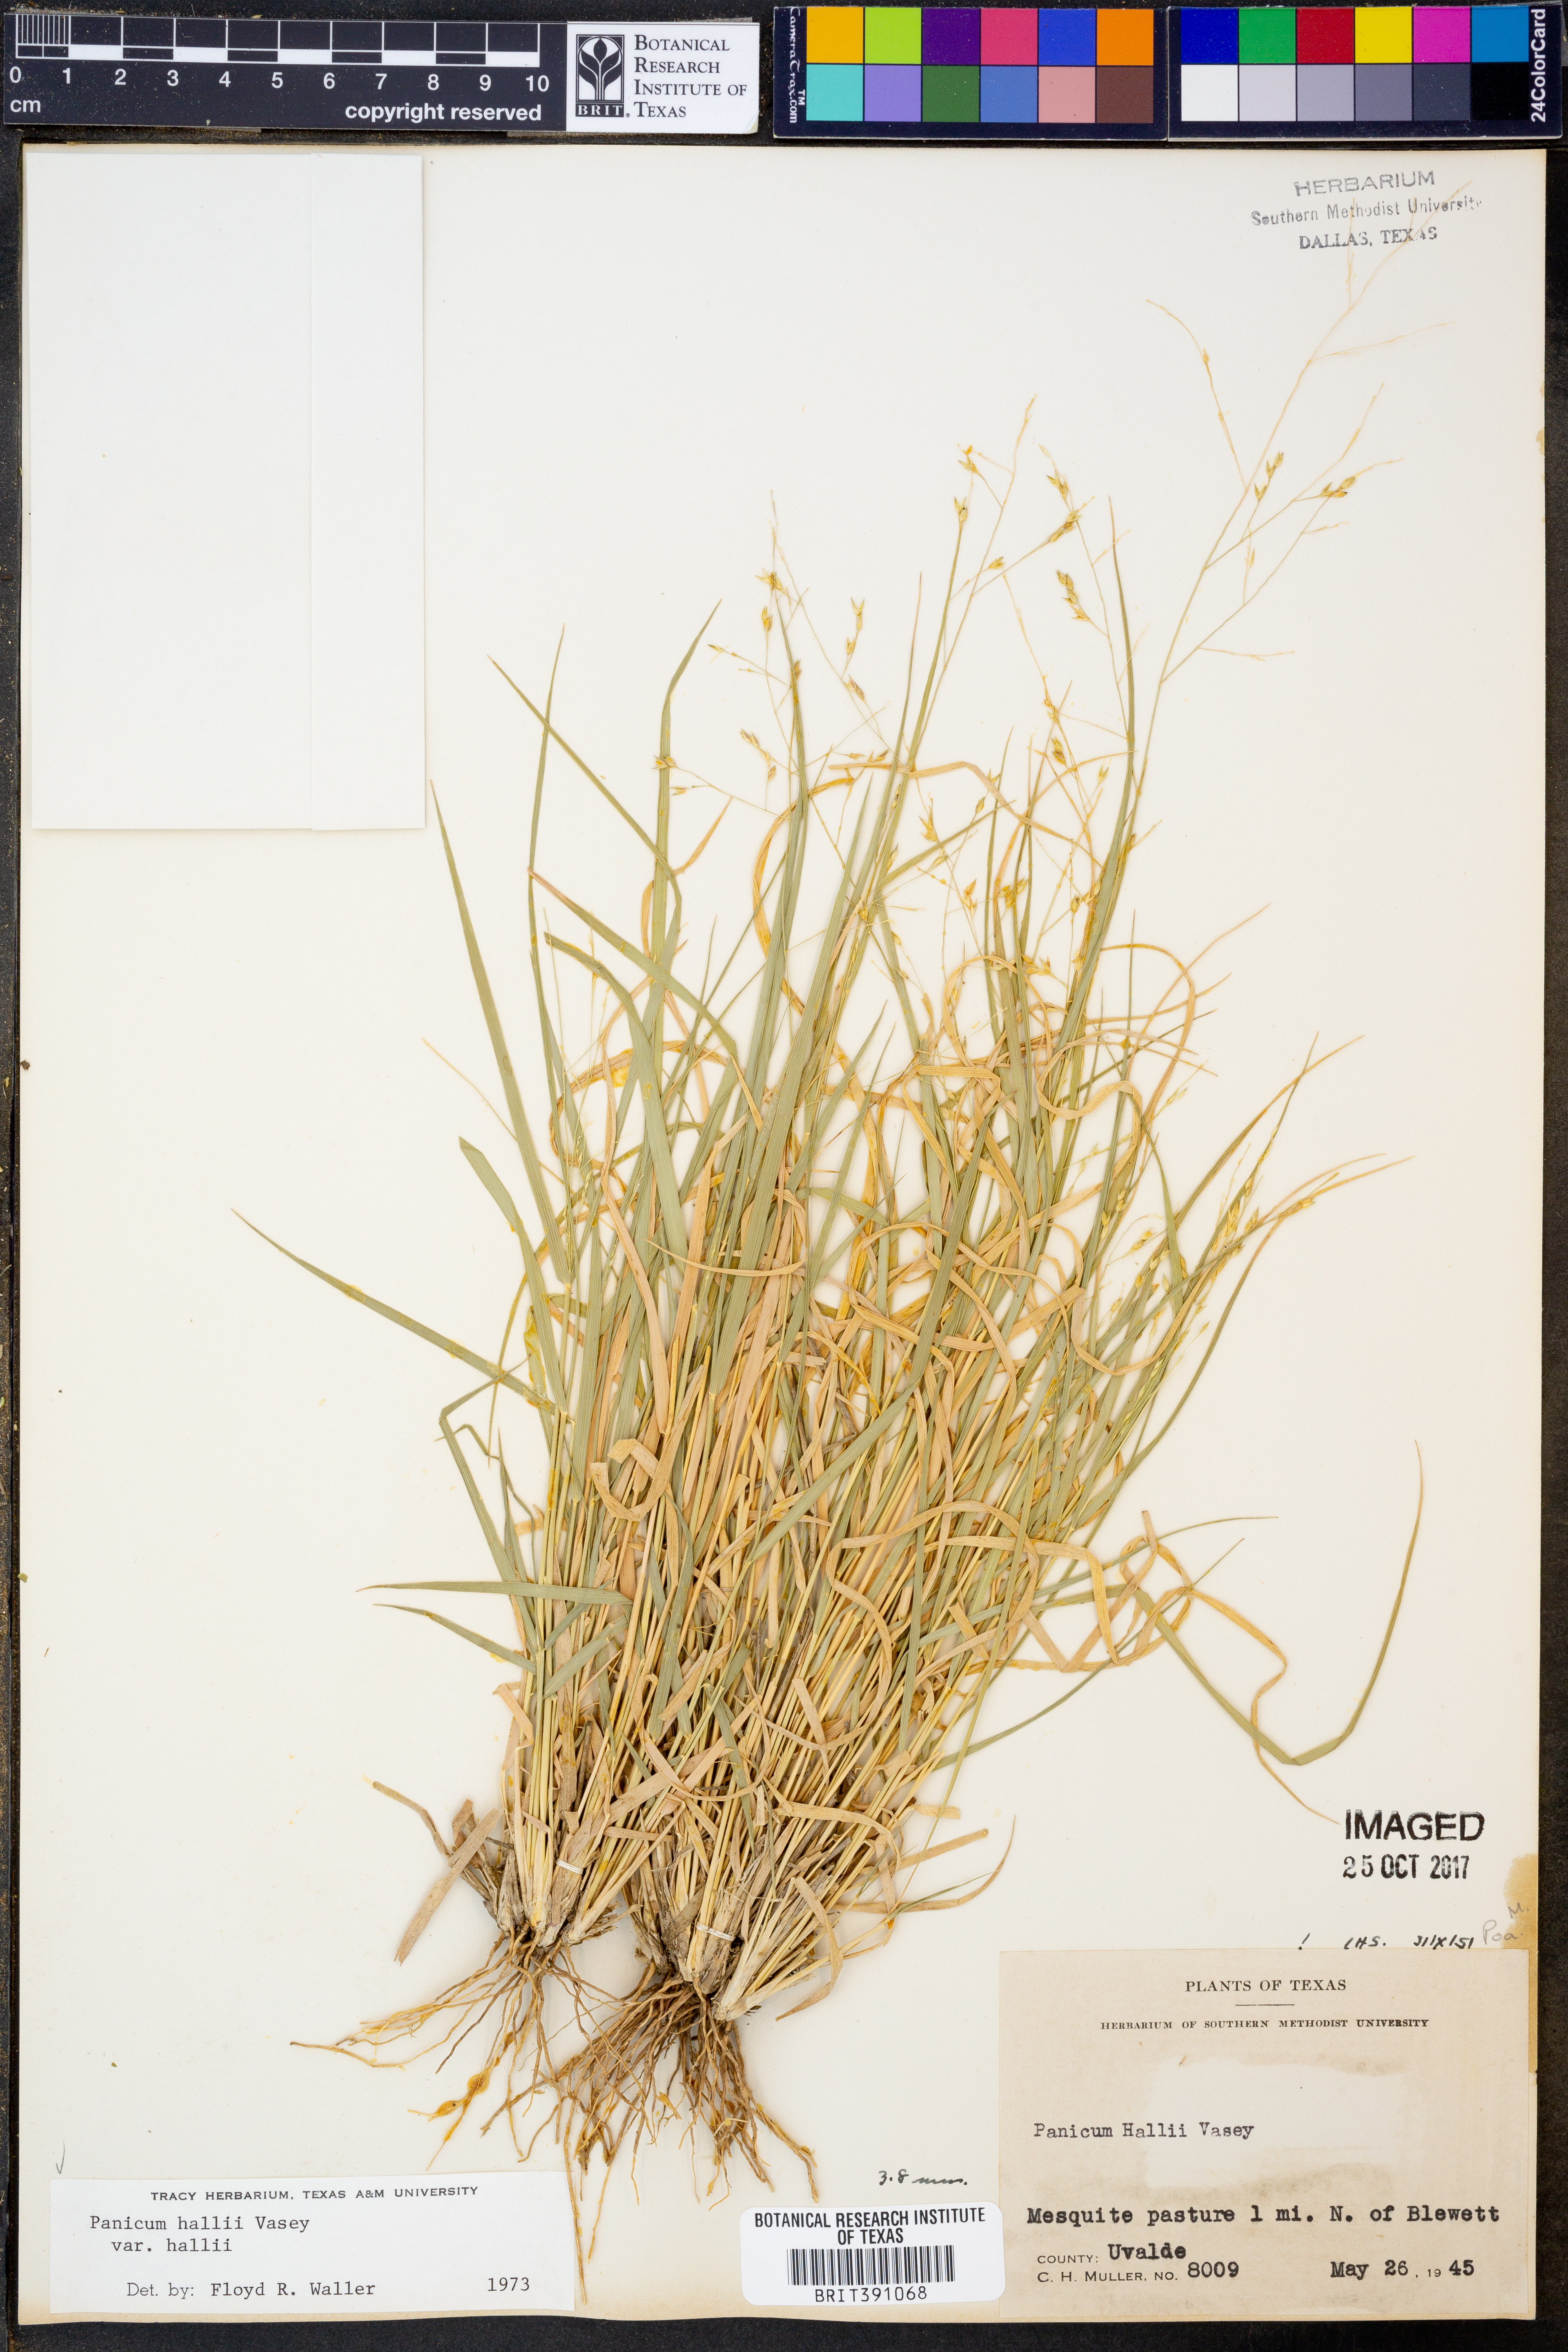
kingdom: Plantae
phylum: Tracheophyta
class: Liliopsida
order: Poales
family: Poaceae
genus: Panicum
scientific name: Panicum hallii
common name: Hall's witchgrass
